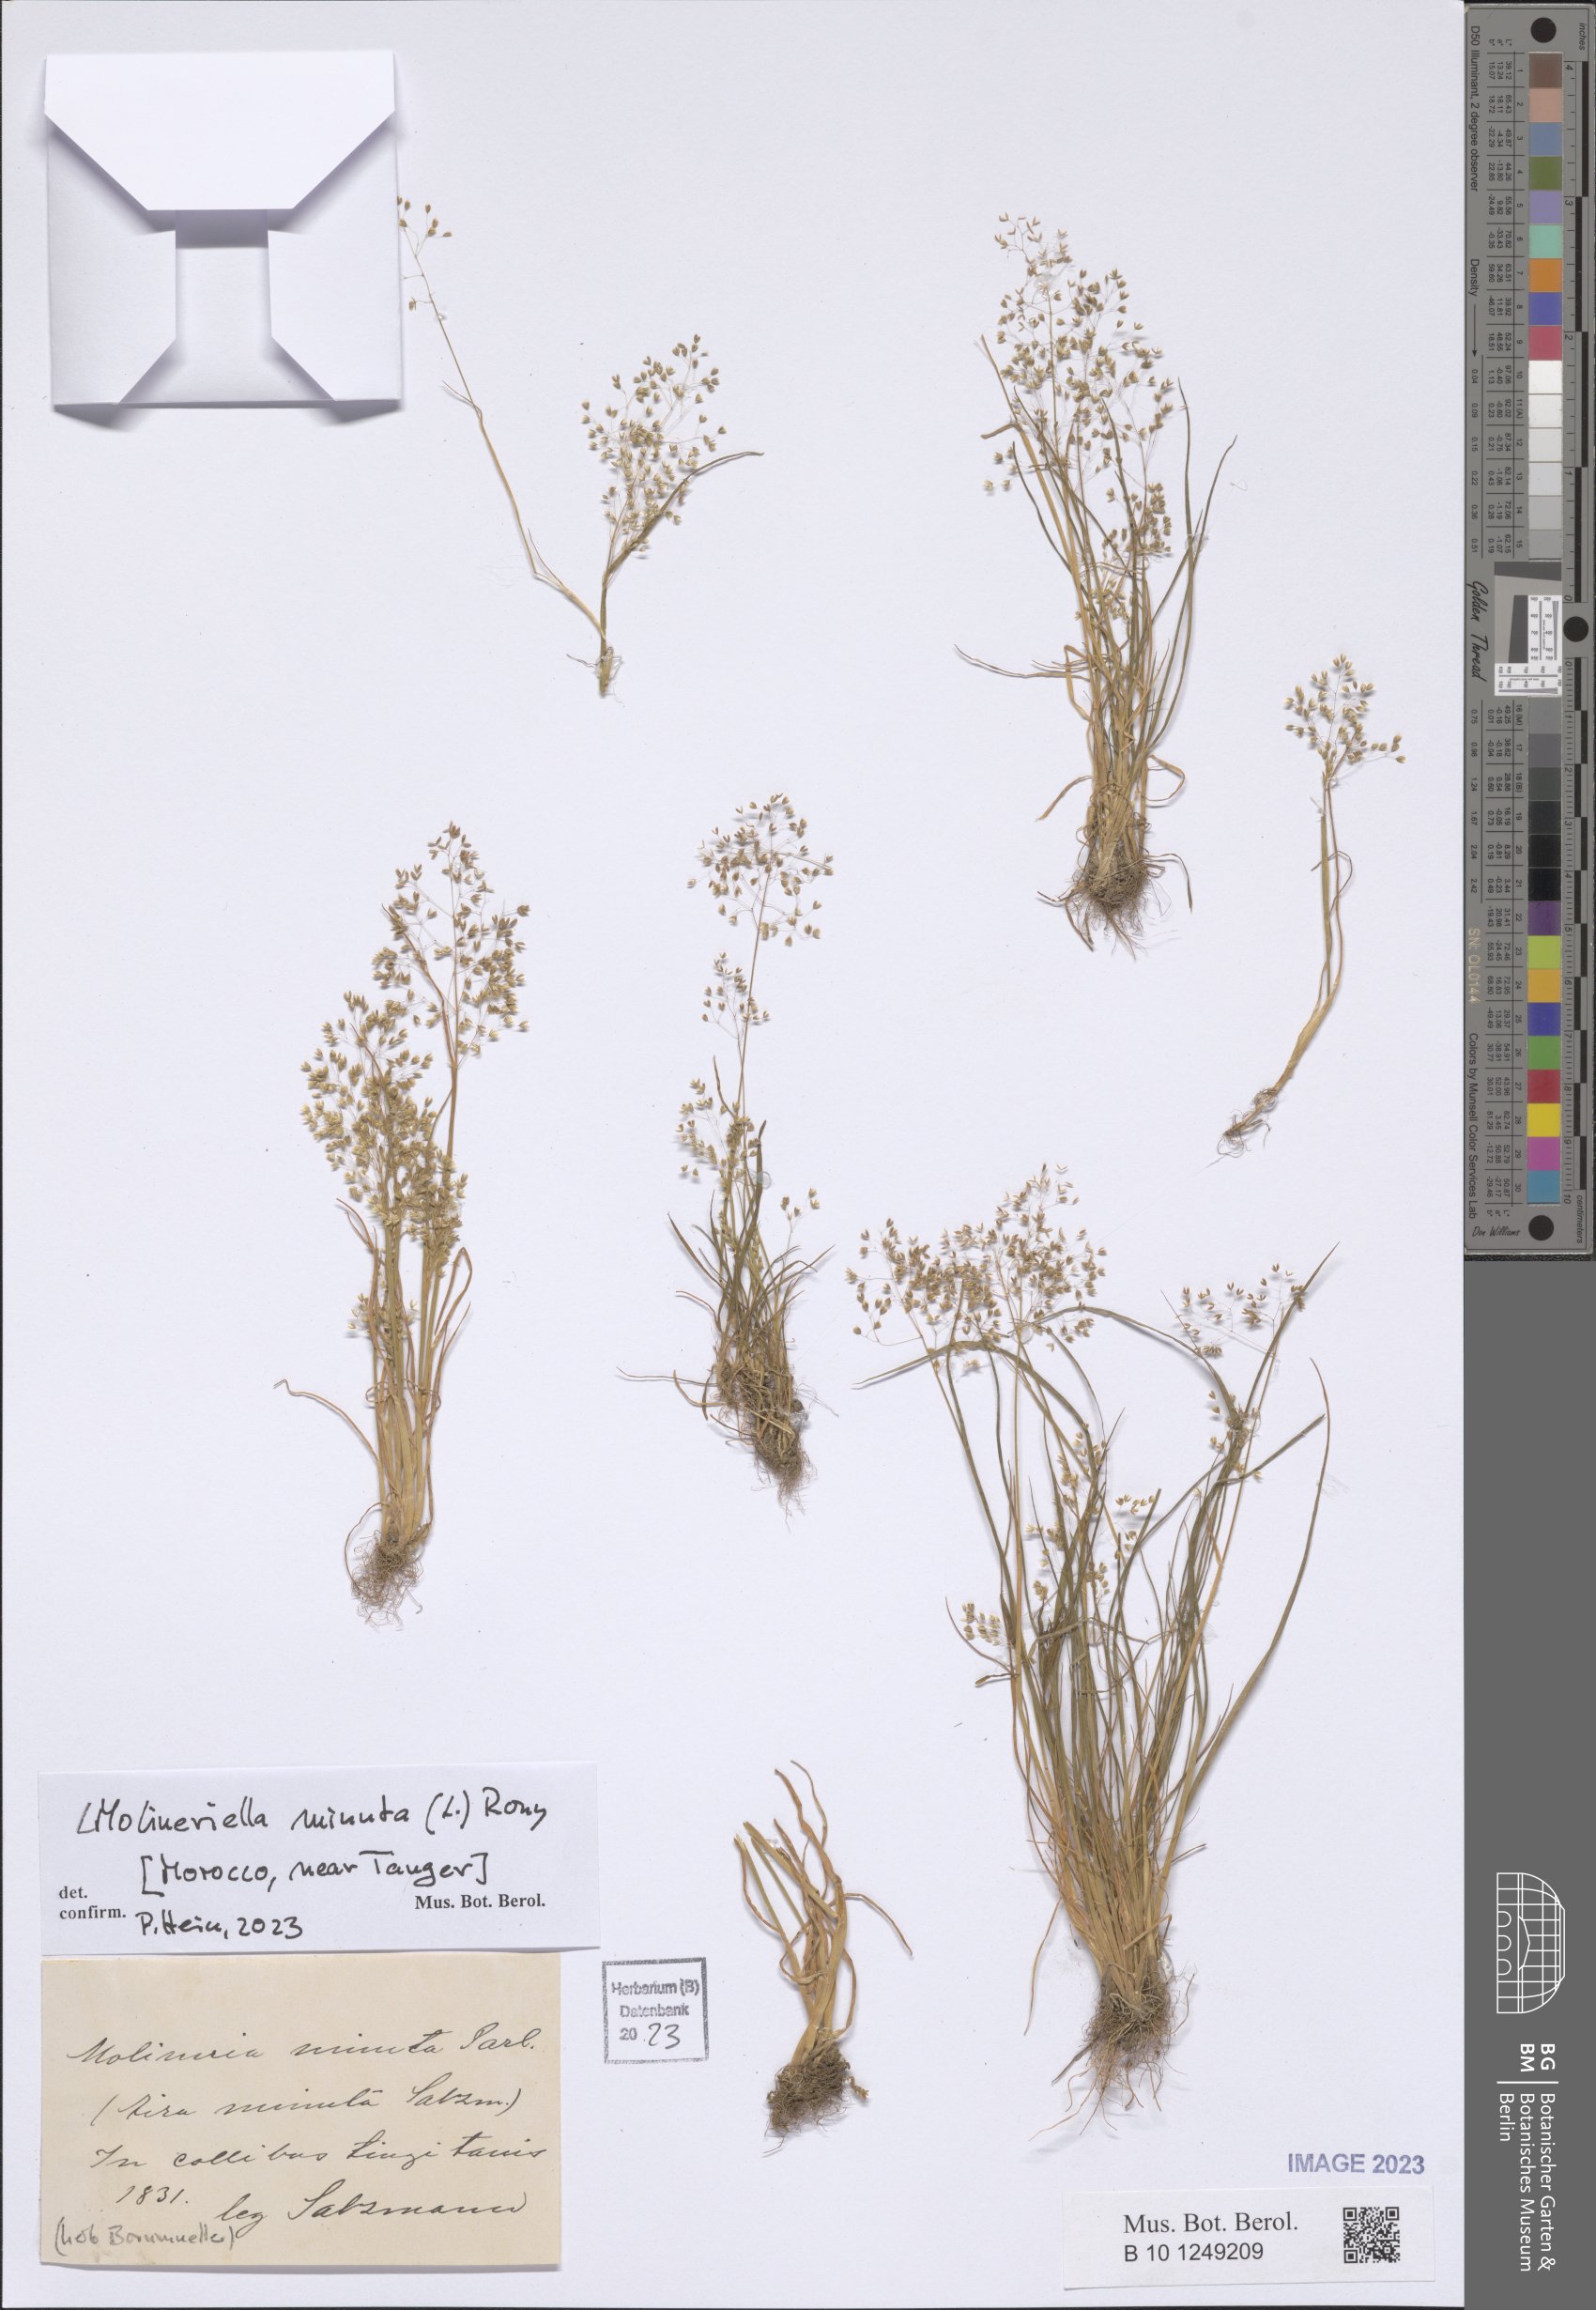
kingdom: Plantae
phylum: Tracheophyta
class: Liliopsida
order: Poales
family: Poaceae
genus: Molineriella
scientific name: Molineriella minuta
